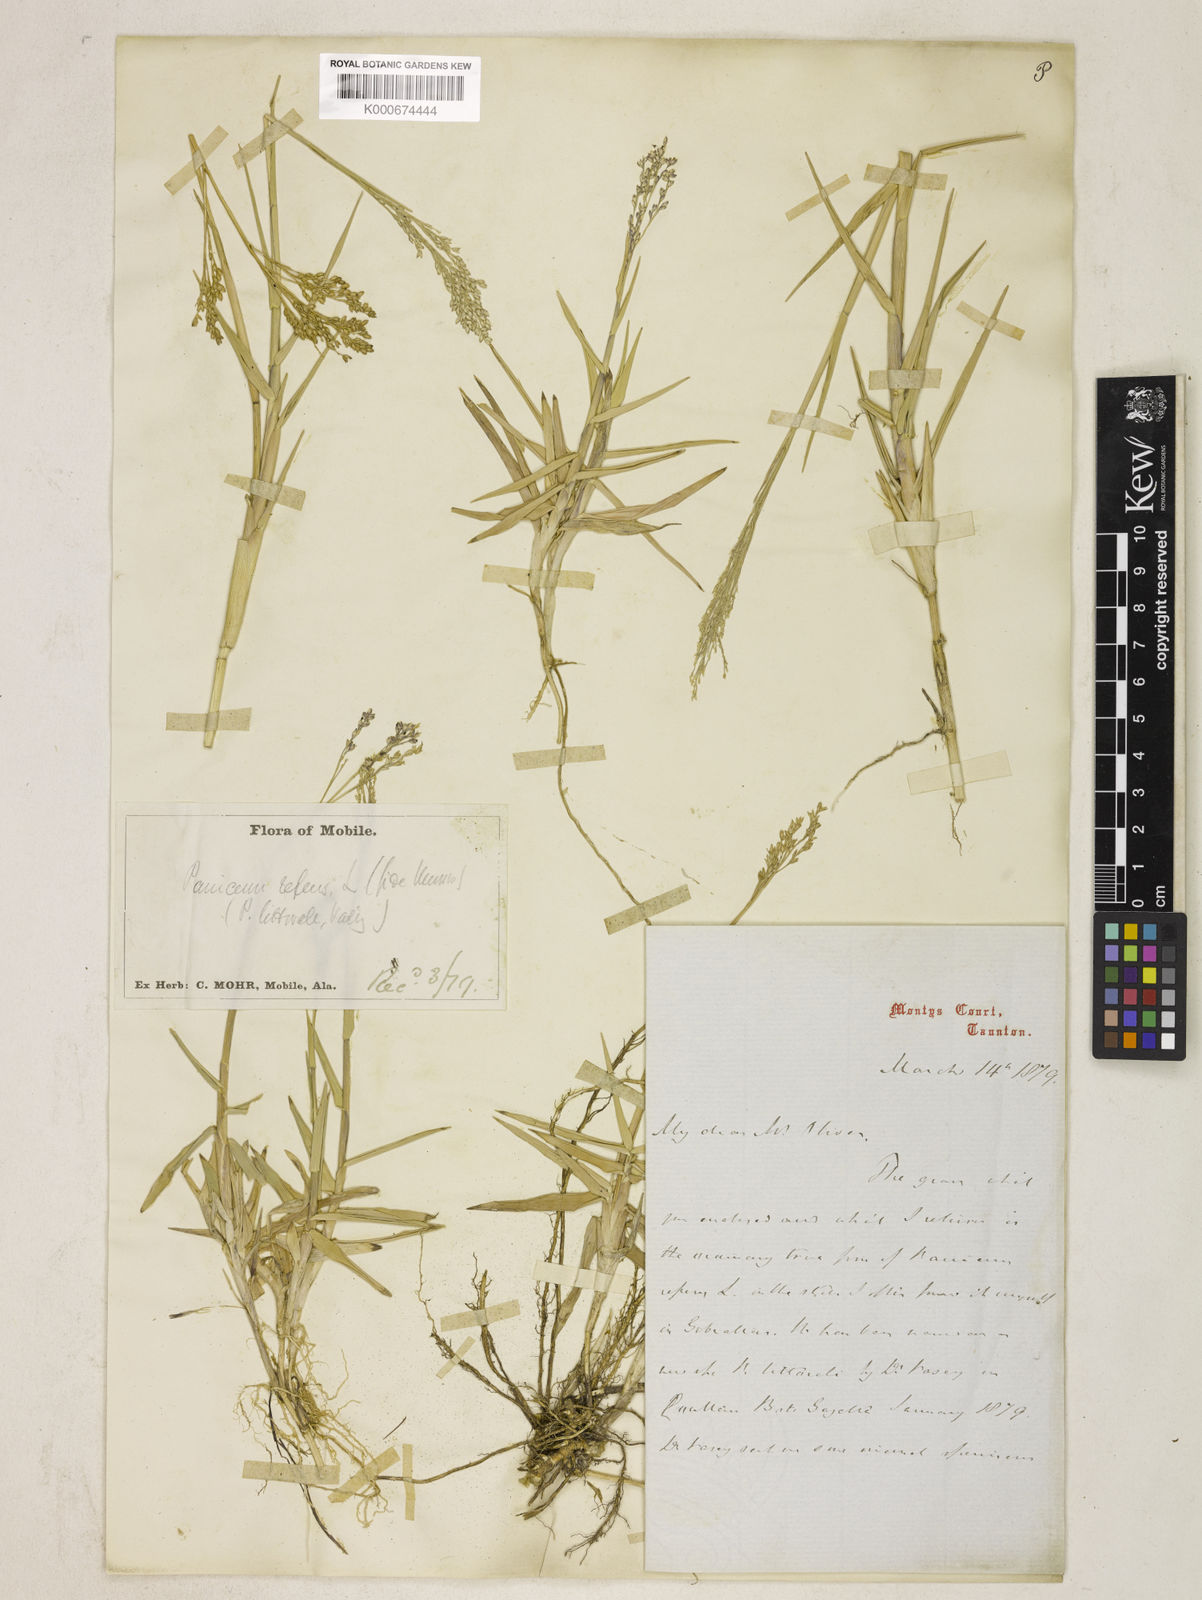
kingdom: Plantae
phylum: Tracheophyta
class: Liliopsida
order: Poales
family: Poaceae
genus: Panicum
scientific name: Panicum repens
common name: Torpedo grass
